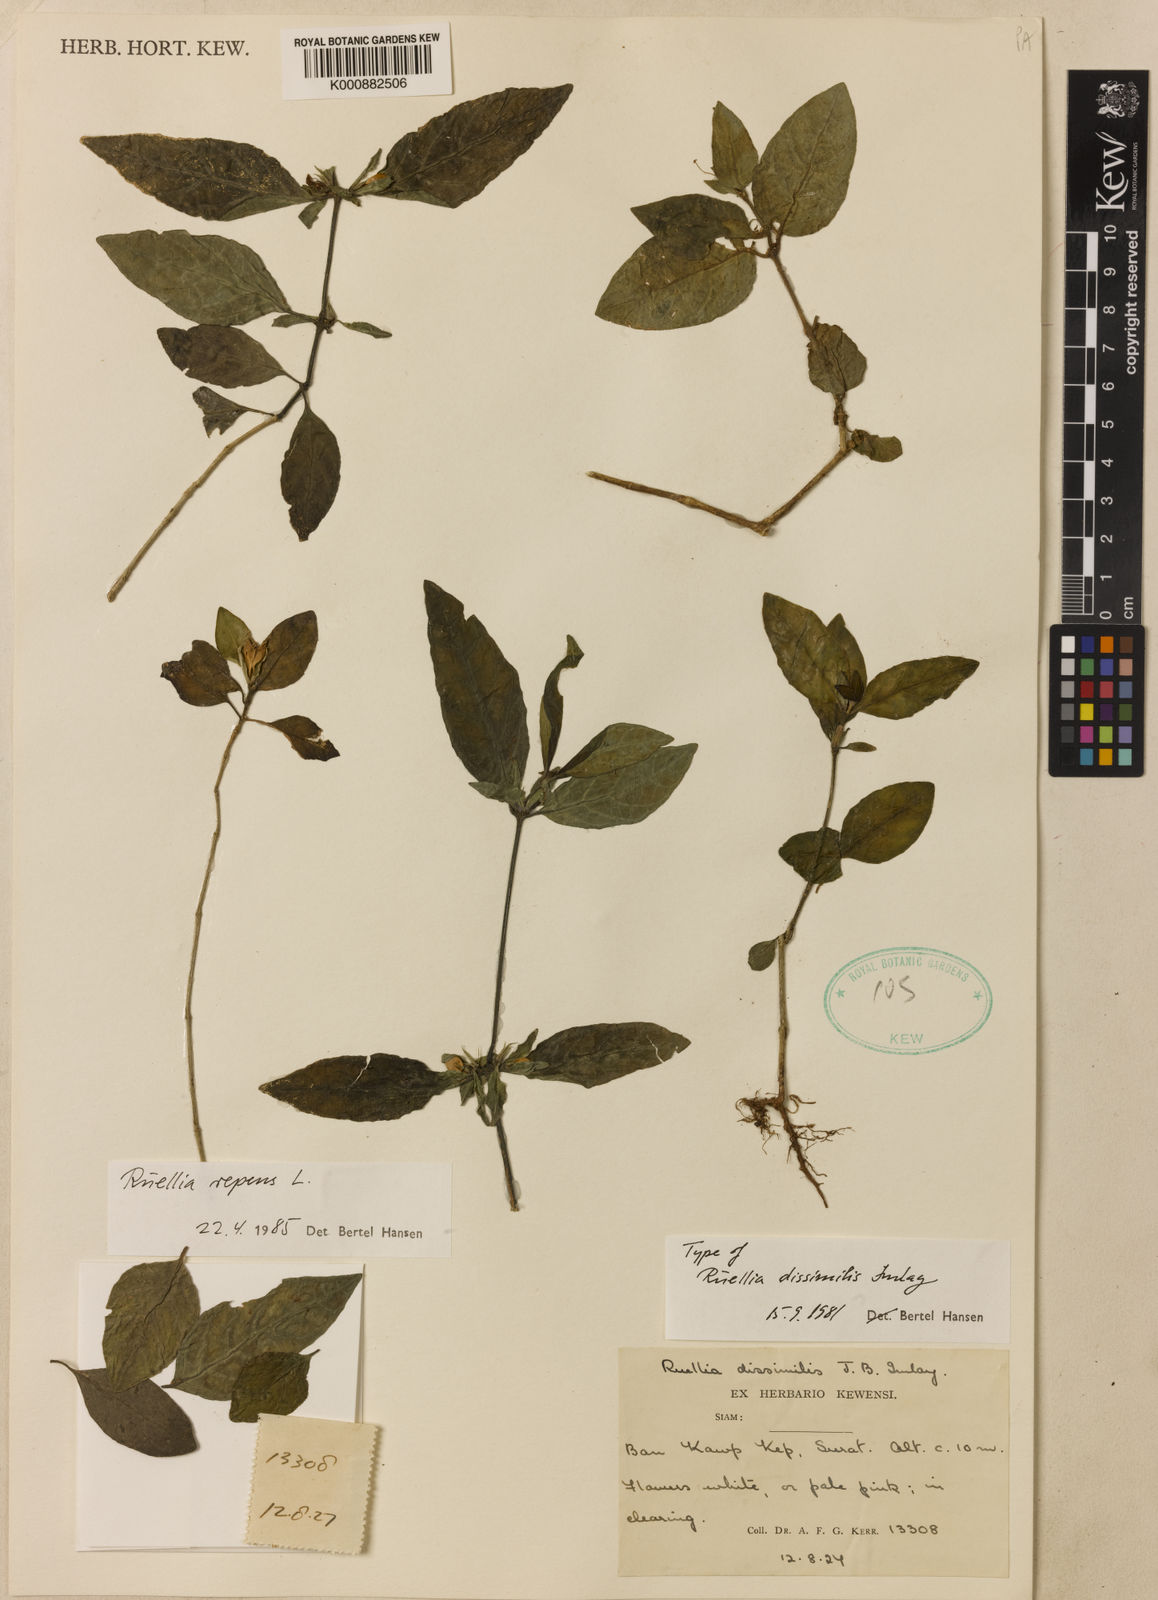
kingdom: Plantae
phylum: Tracheophyta
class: Magnoliopsida
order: Lamiales
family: Acanthaceae
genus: Ruellia
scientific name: Ruellia repens
